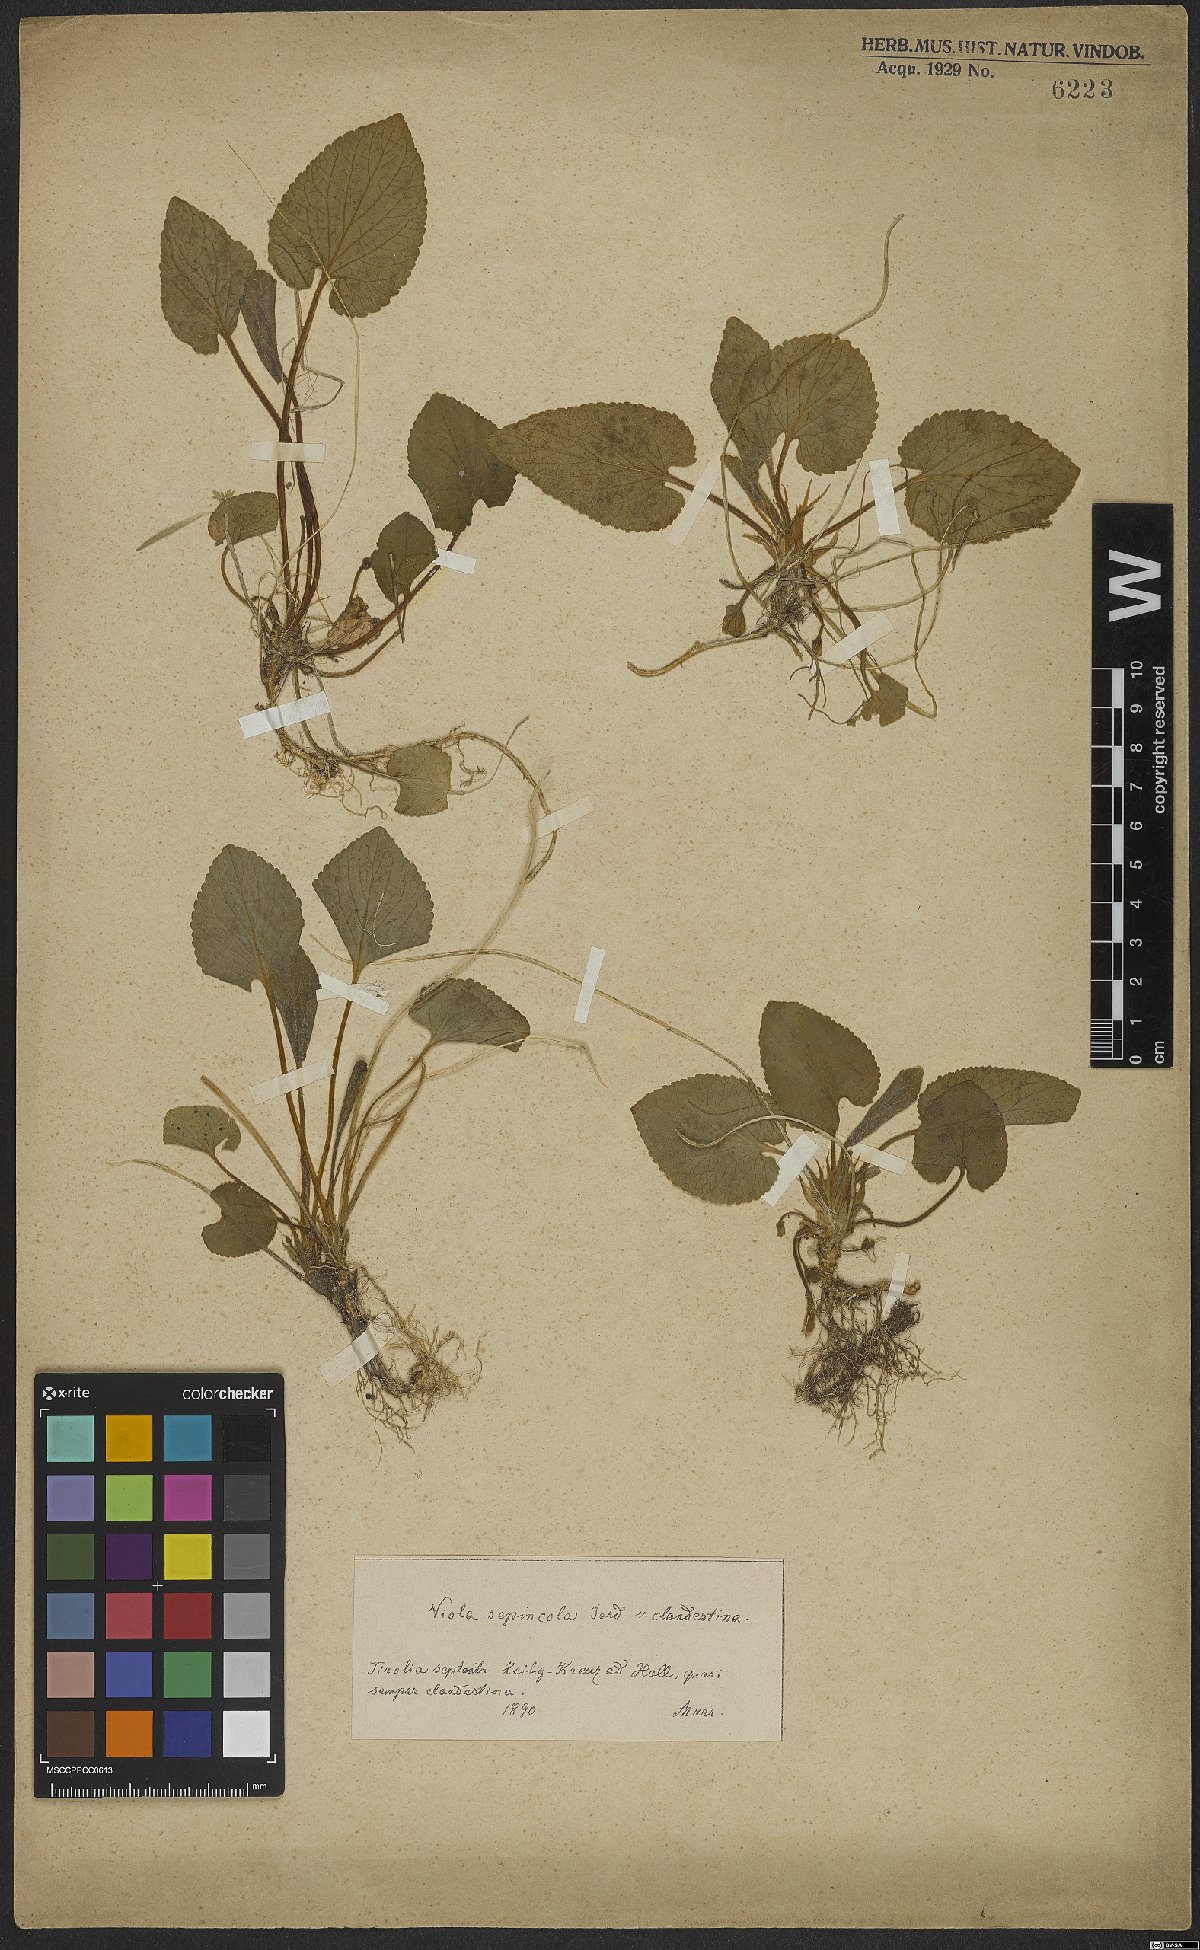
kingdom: Plantae
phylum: Tracheophyta
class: Magnoliopsida
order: Malpighiales
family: Violaceae
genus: Viola
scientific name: Viola suavis
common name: Russian violet
